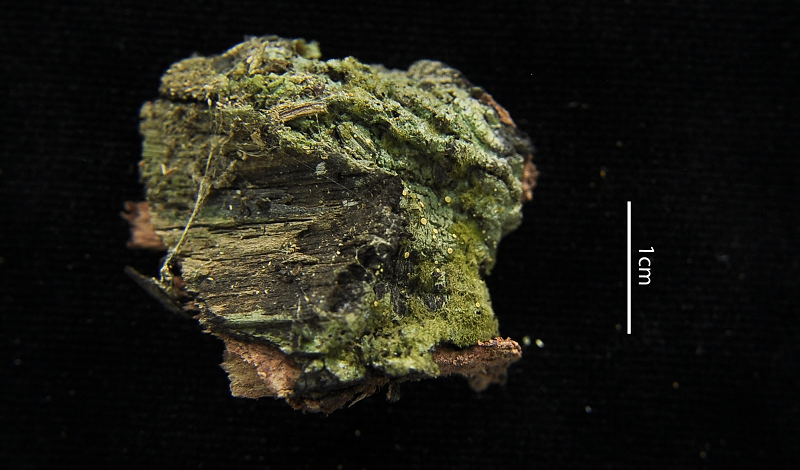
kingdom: Fungi
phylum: Ascomycota
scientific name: Ascomycota
